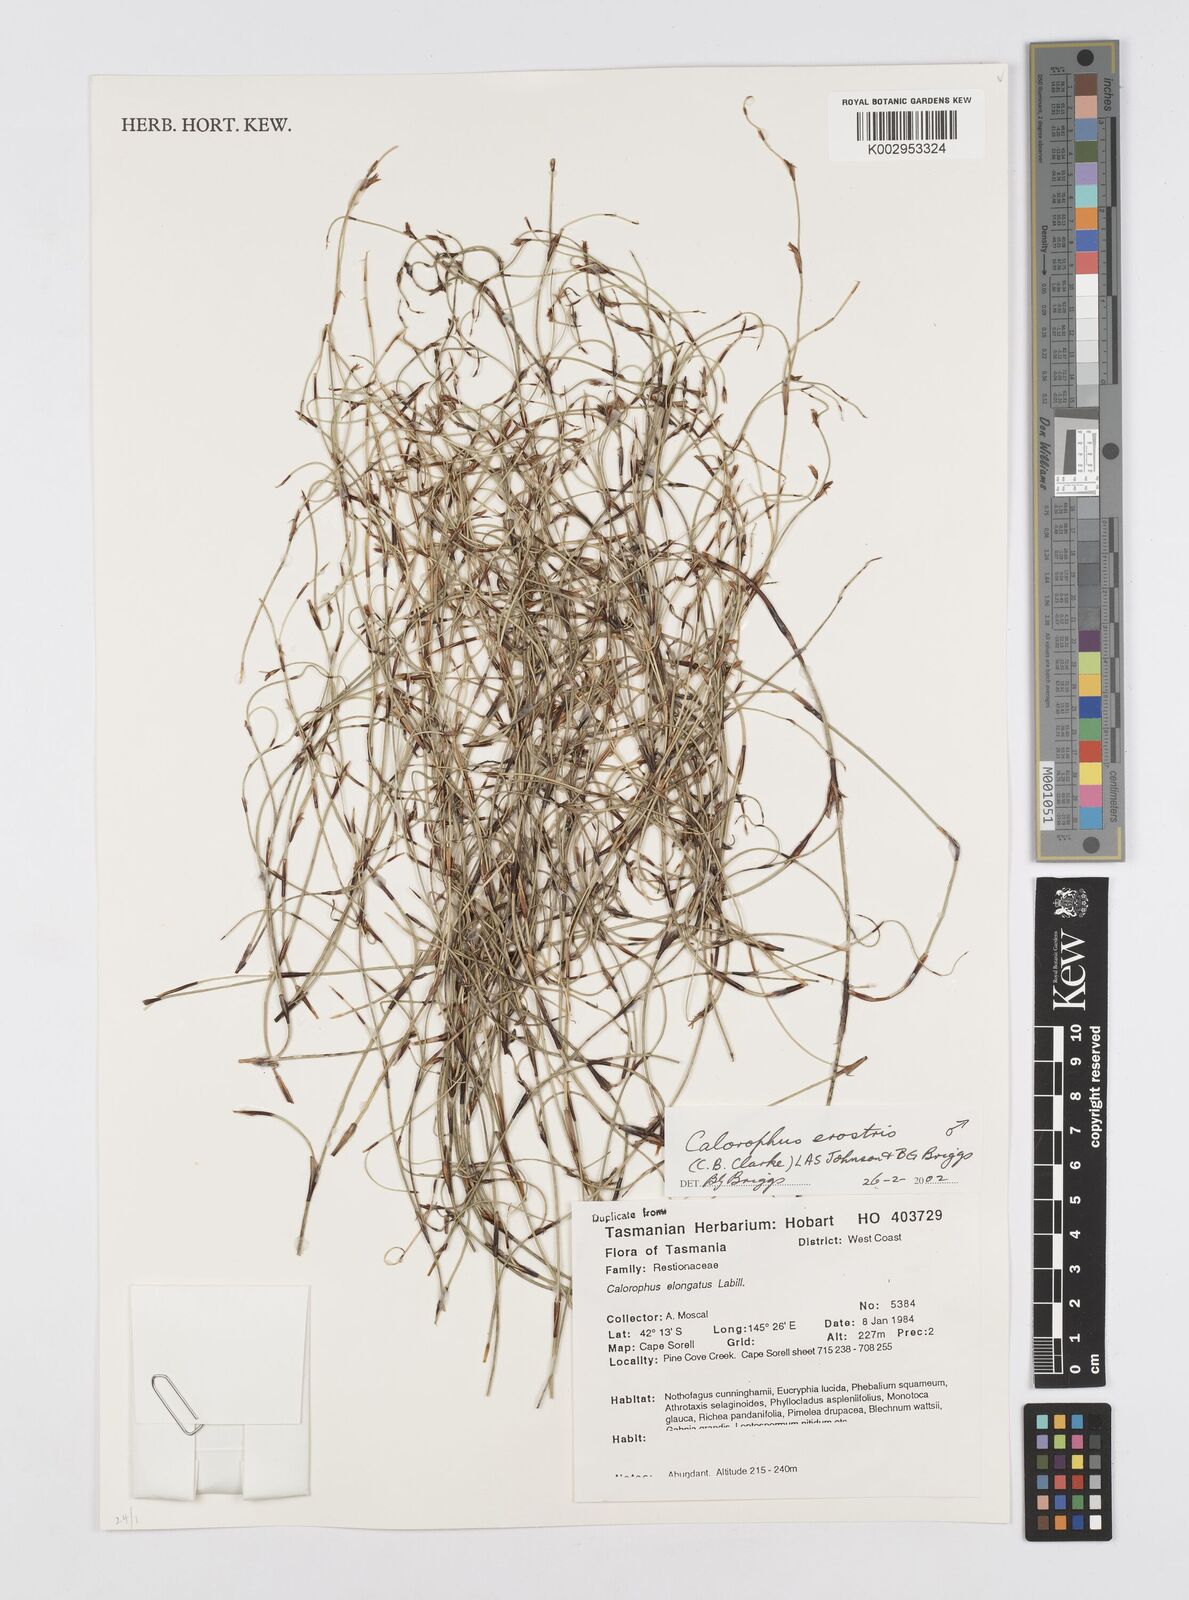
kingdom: Plantae
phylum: Tracheophyta
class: Liliopsida
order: Poales
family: Restionaceae
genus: Calorophus
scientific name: Calorophus erostris
